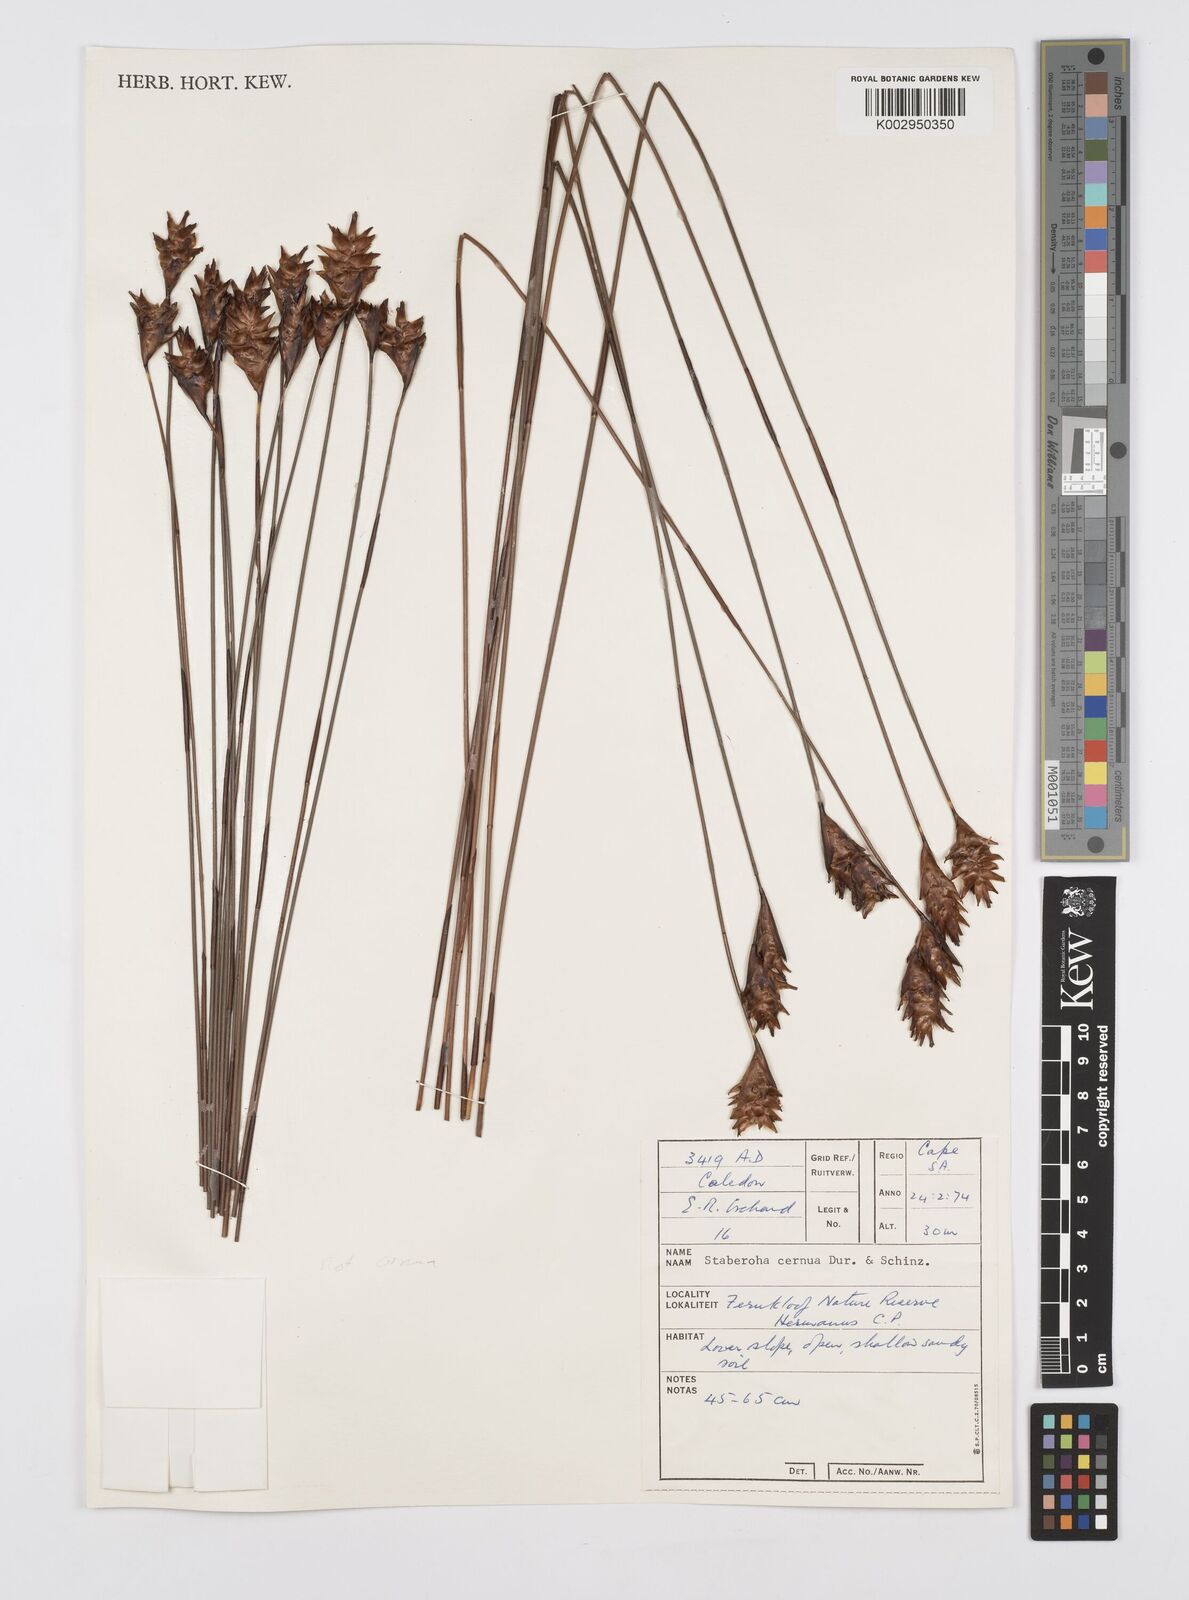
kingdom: Plantae
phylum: Tracheophyta
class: Liliopsida
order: Poales
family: Restionaceae
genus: Staberoha
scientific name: Staberoha distachyos
